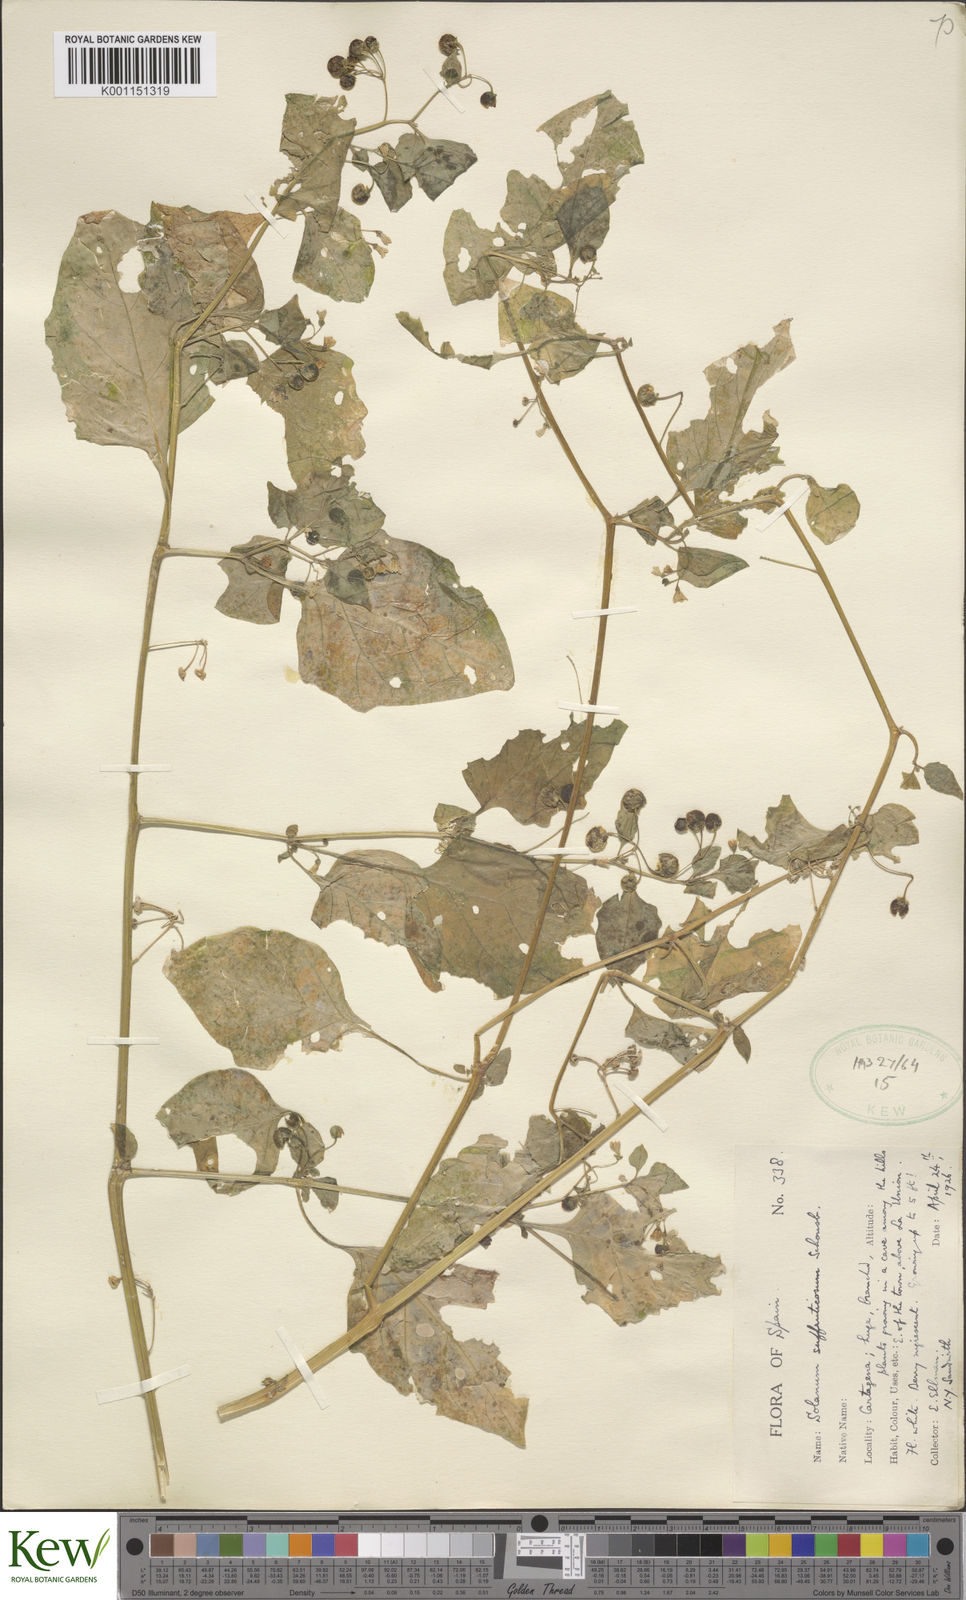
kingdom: Plantae
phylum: Tracheophyta
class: Magnoliopsida
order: Solanales
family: Solanaceae
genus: Solanum
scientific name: Solanum nigrum
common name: Black nightshade
